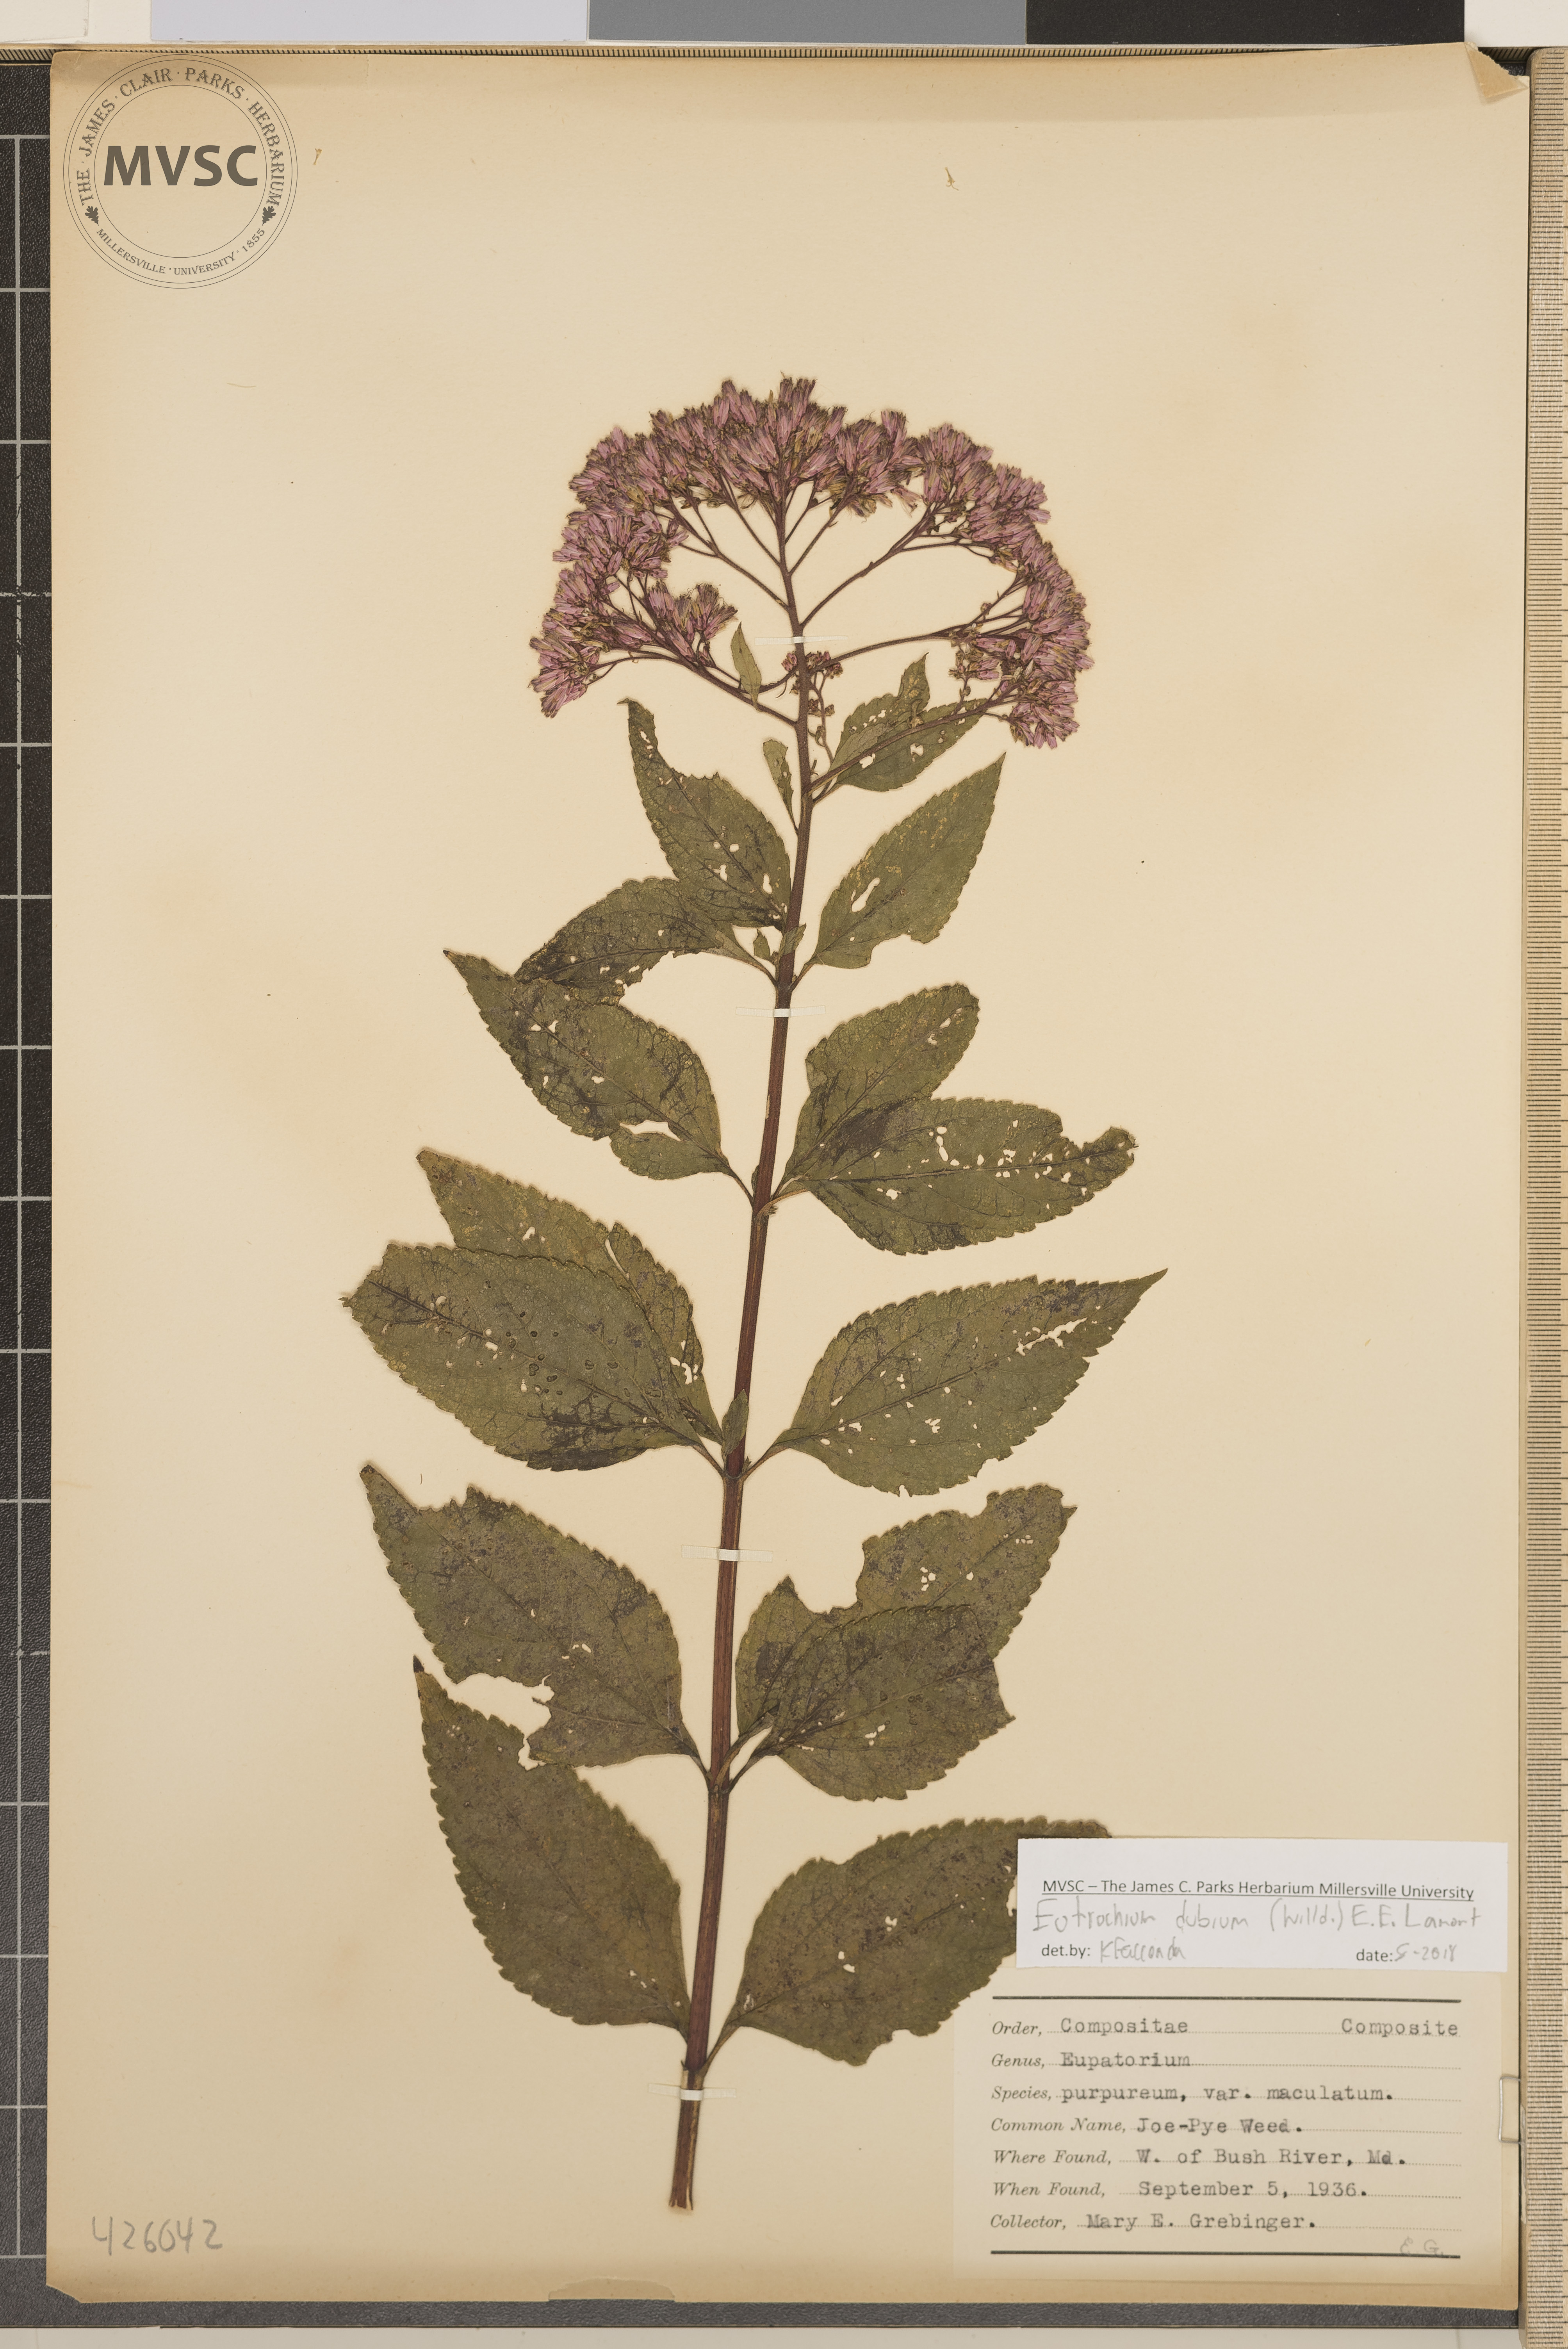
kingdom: Plantae
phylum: Tracheophyta
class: Magnoliopsida
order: Asterales
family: Asteraceae
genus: Eutrochium
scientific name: Eutrochium dubium
